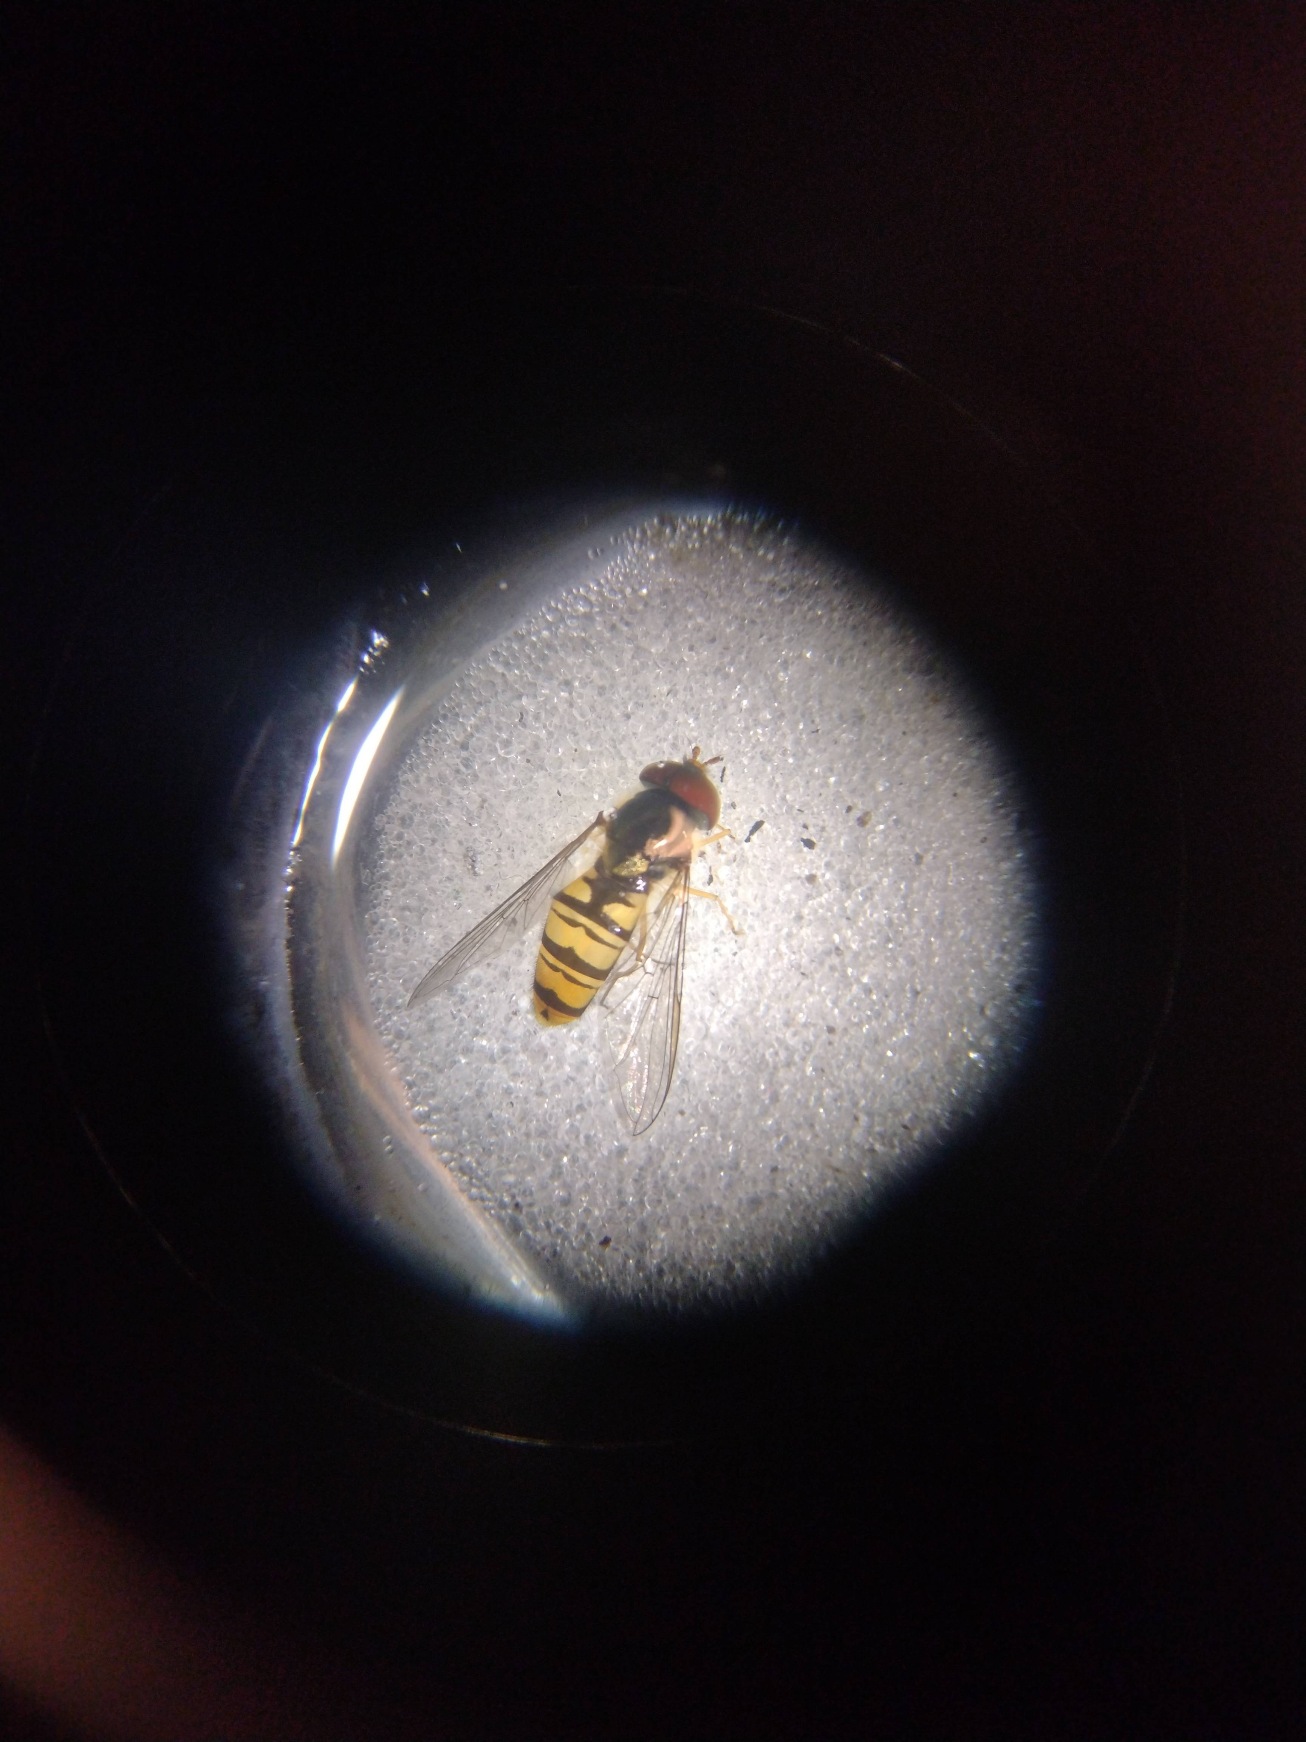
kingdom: Animalia
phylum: Arthropoda
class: Insecta
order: Diptera
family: Syrphidae
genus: Episyrphus
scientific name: Episyrphus balteatus
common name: Dobbeltbåndet svirreflue
